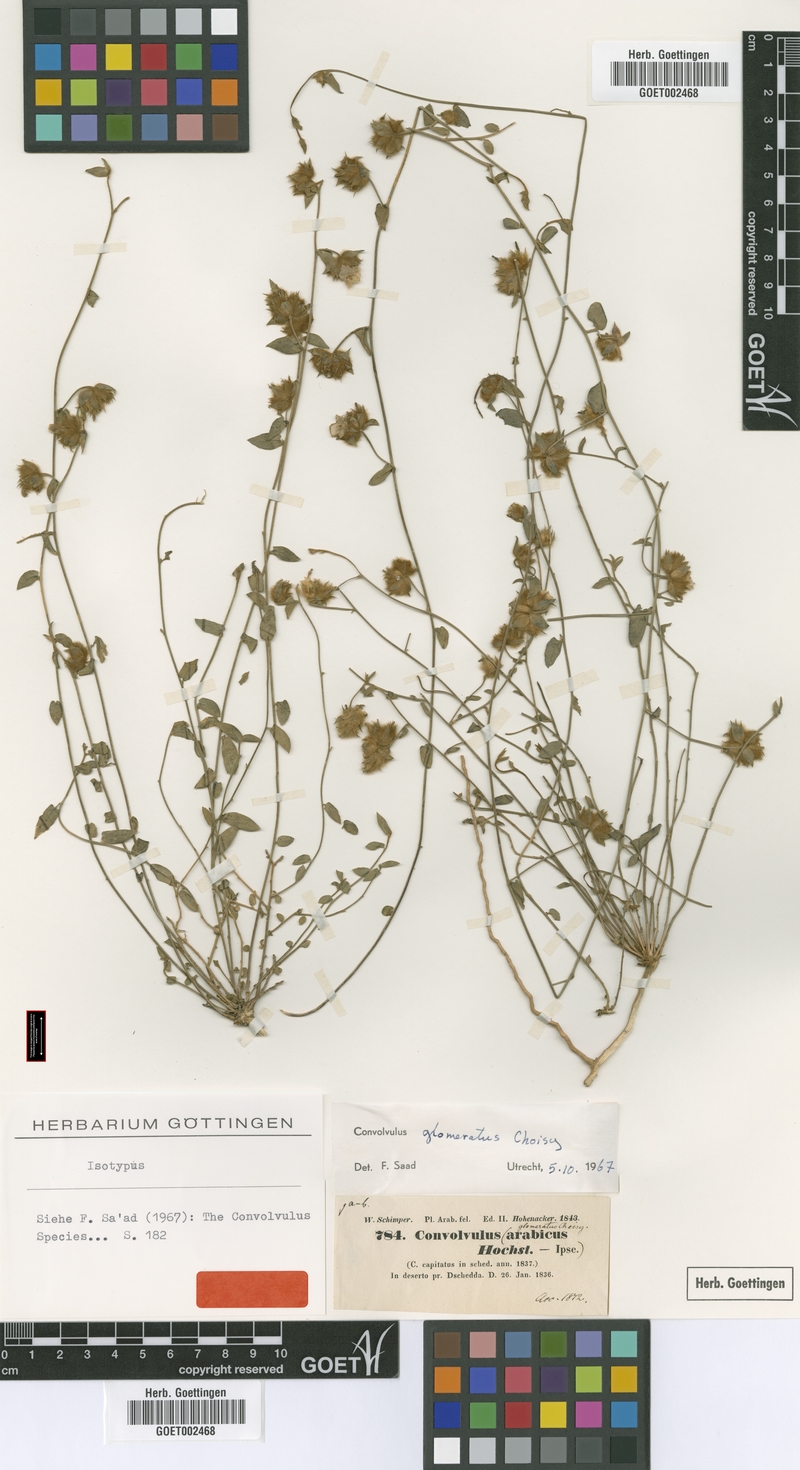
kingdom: Plantae
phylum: Tracheophyta
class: Magnoliopsida
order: Solanales
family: Convolvulaceae
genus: Convolvulus
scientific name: Convolvulus glomeratus
